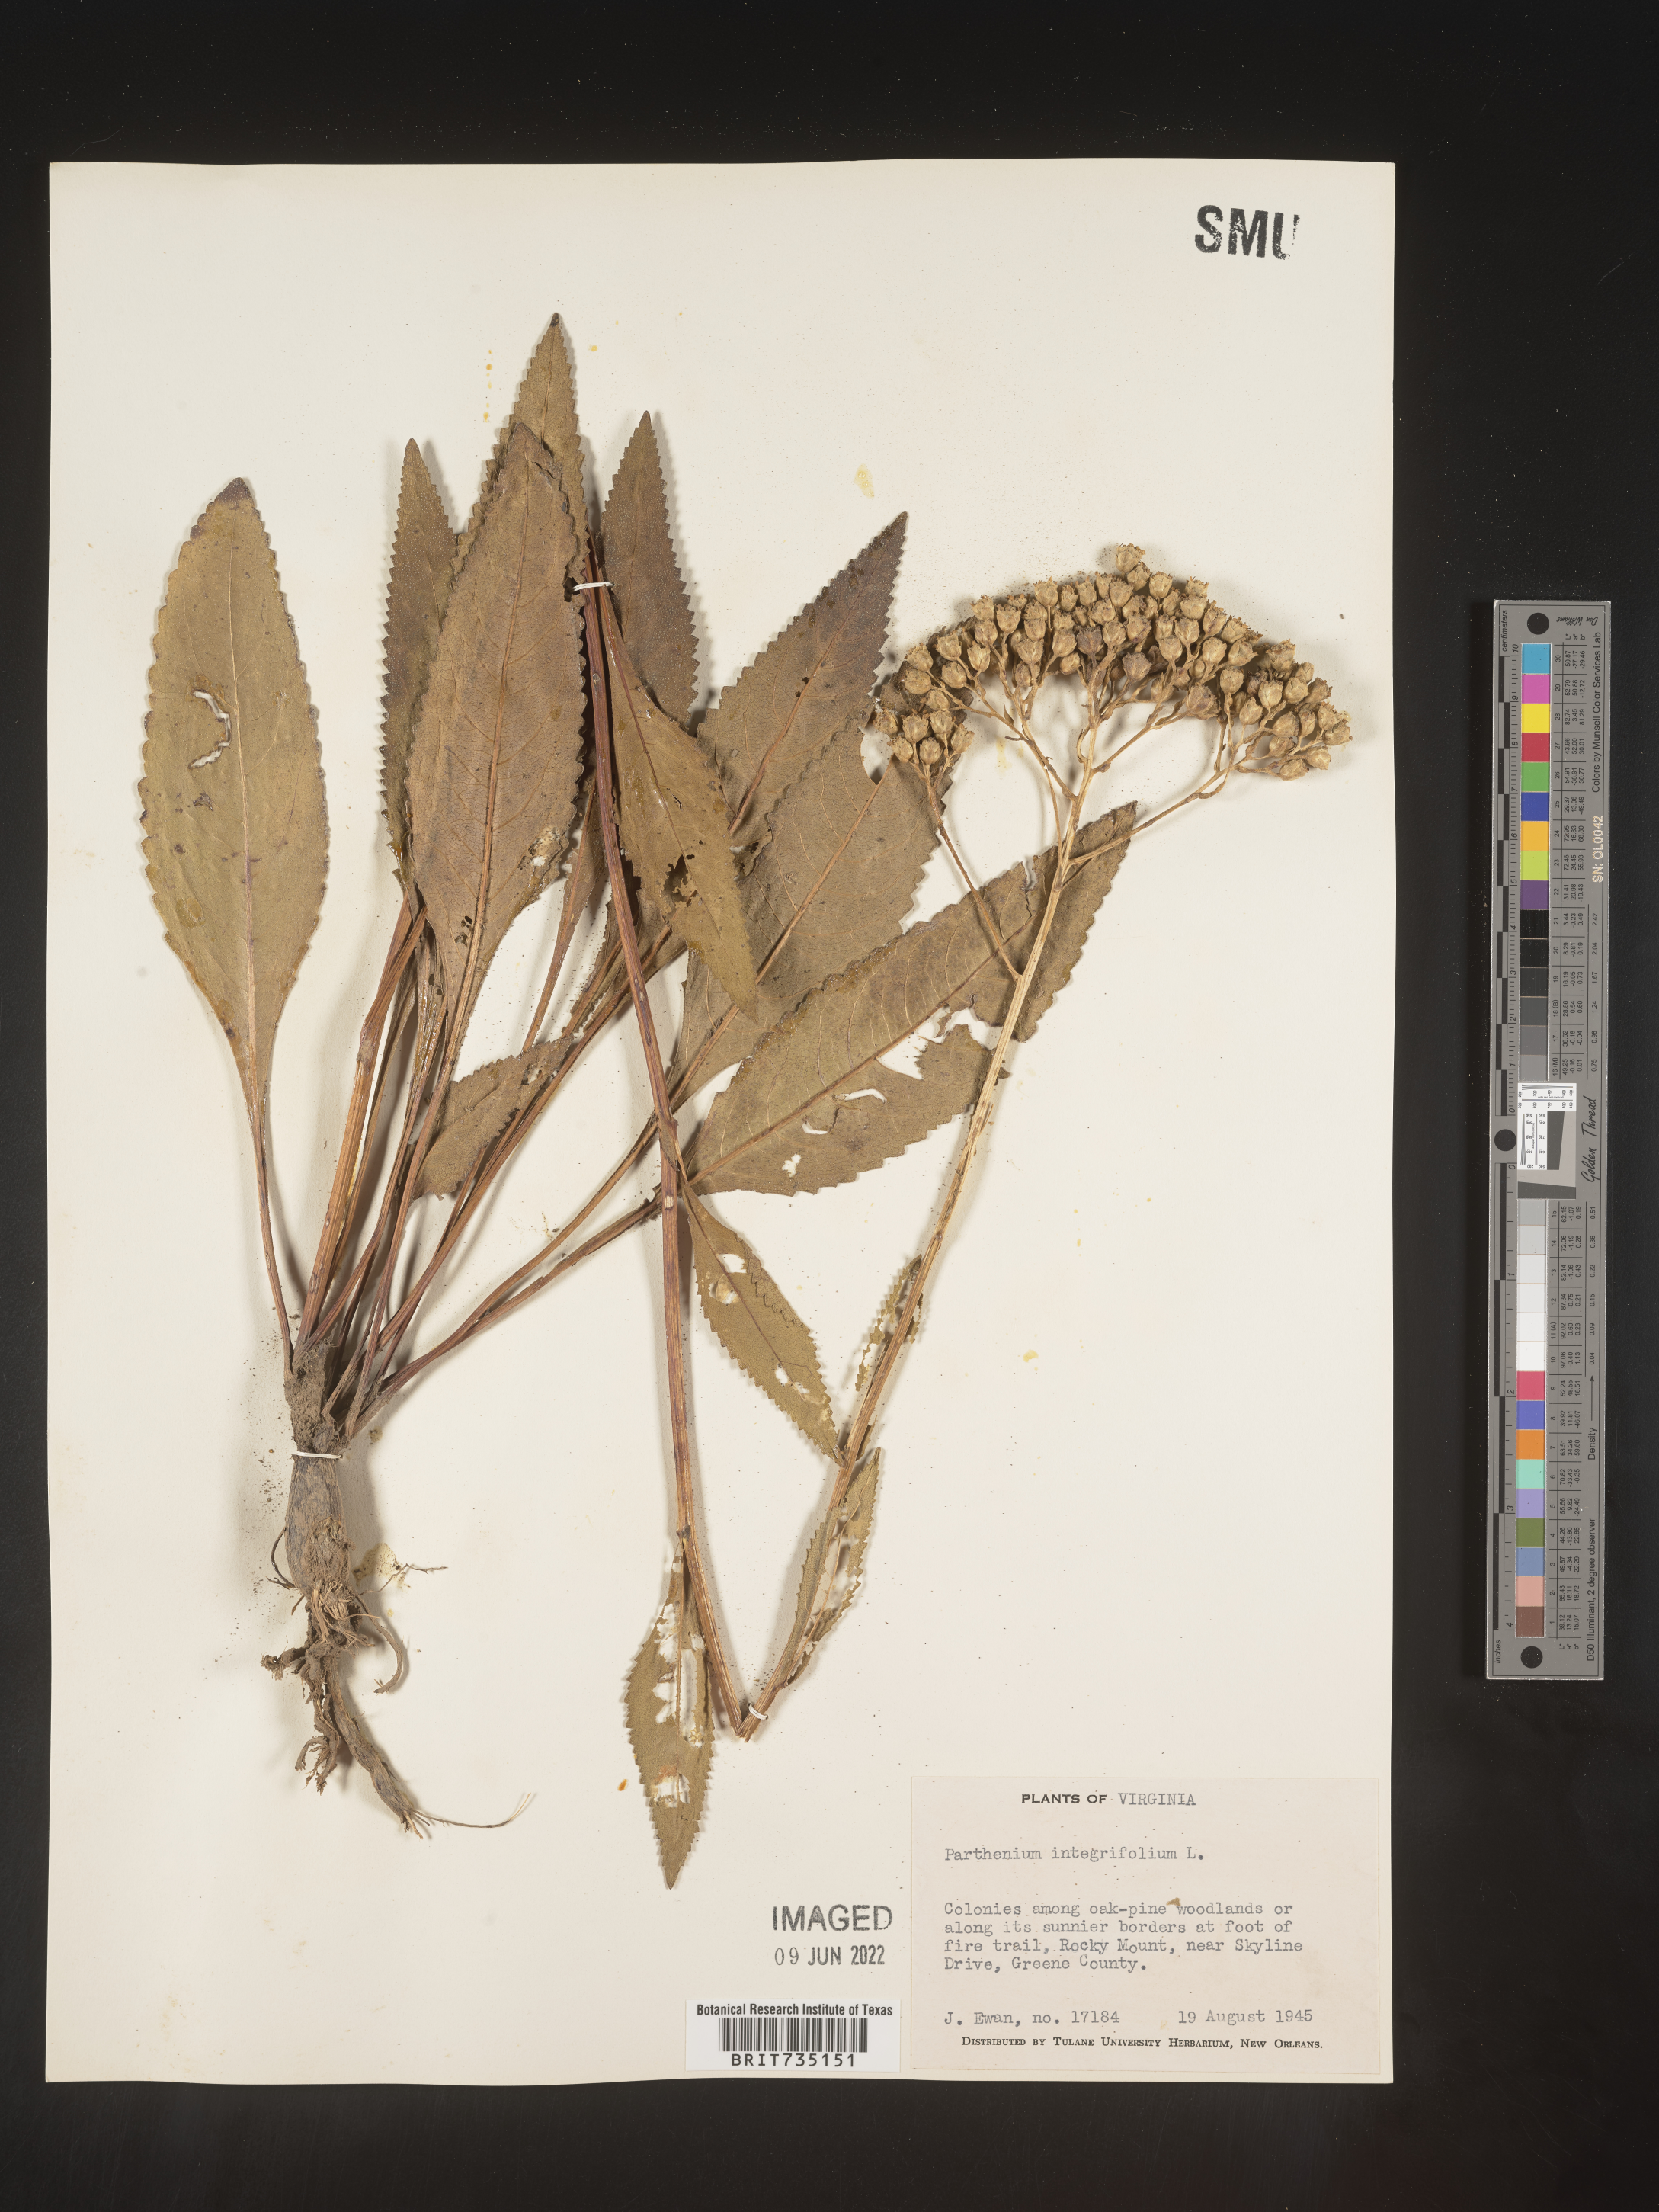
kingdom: Plantae
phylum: Tracheophyta
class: Magnoliopsida
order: Asterales
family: Asteraceae
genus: Parthenium
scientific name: Parthenium integrifolium
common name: American feverfew
